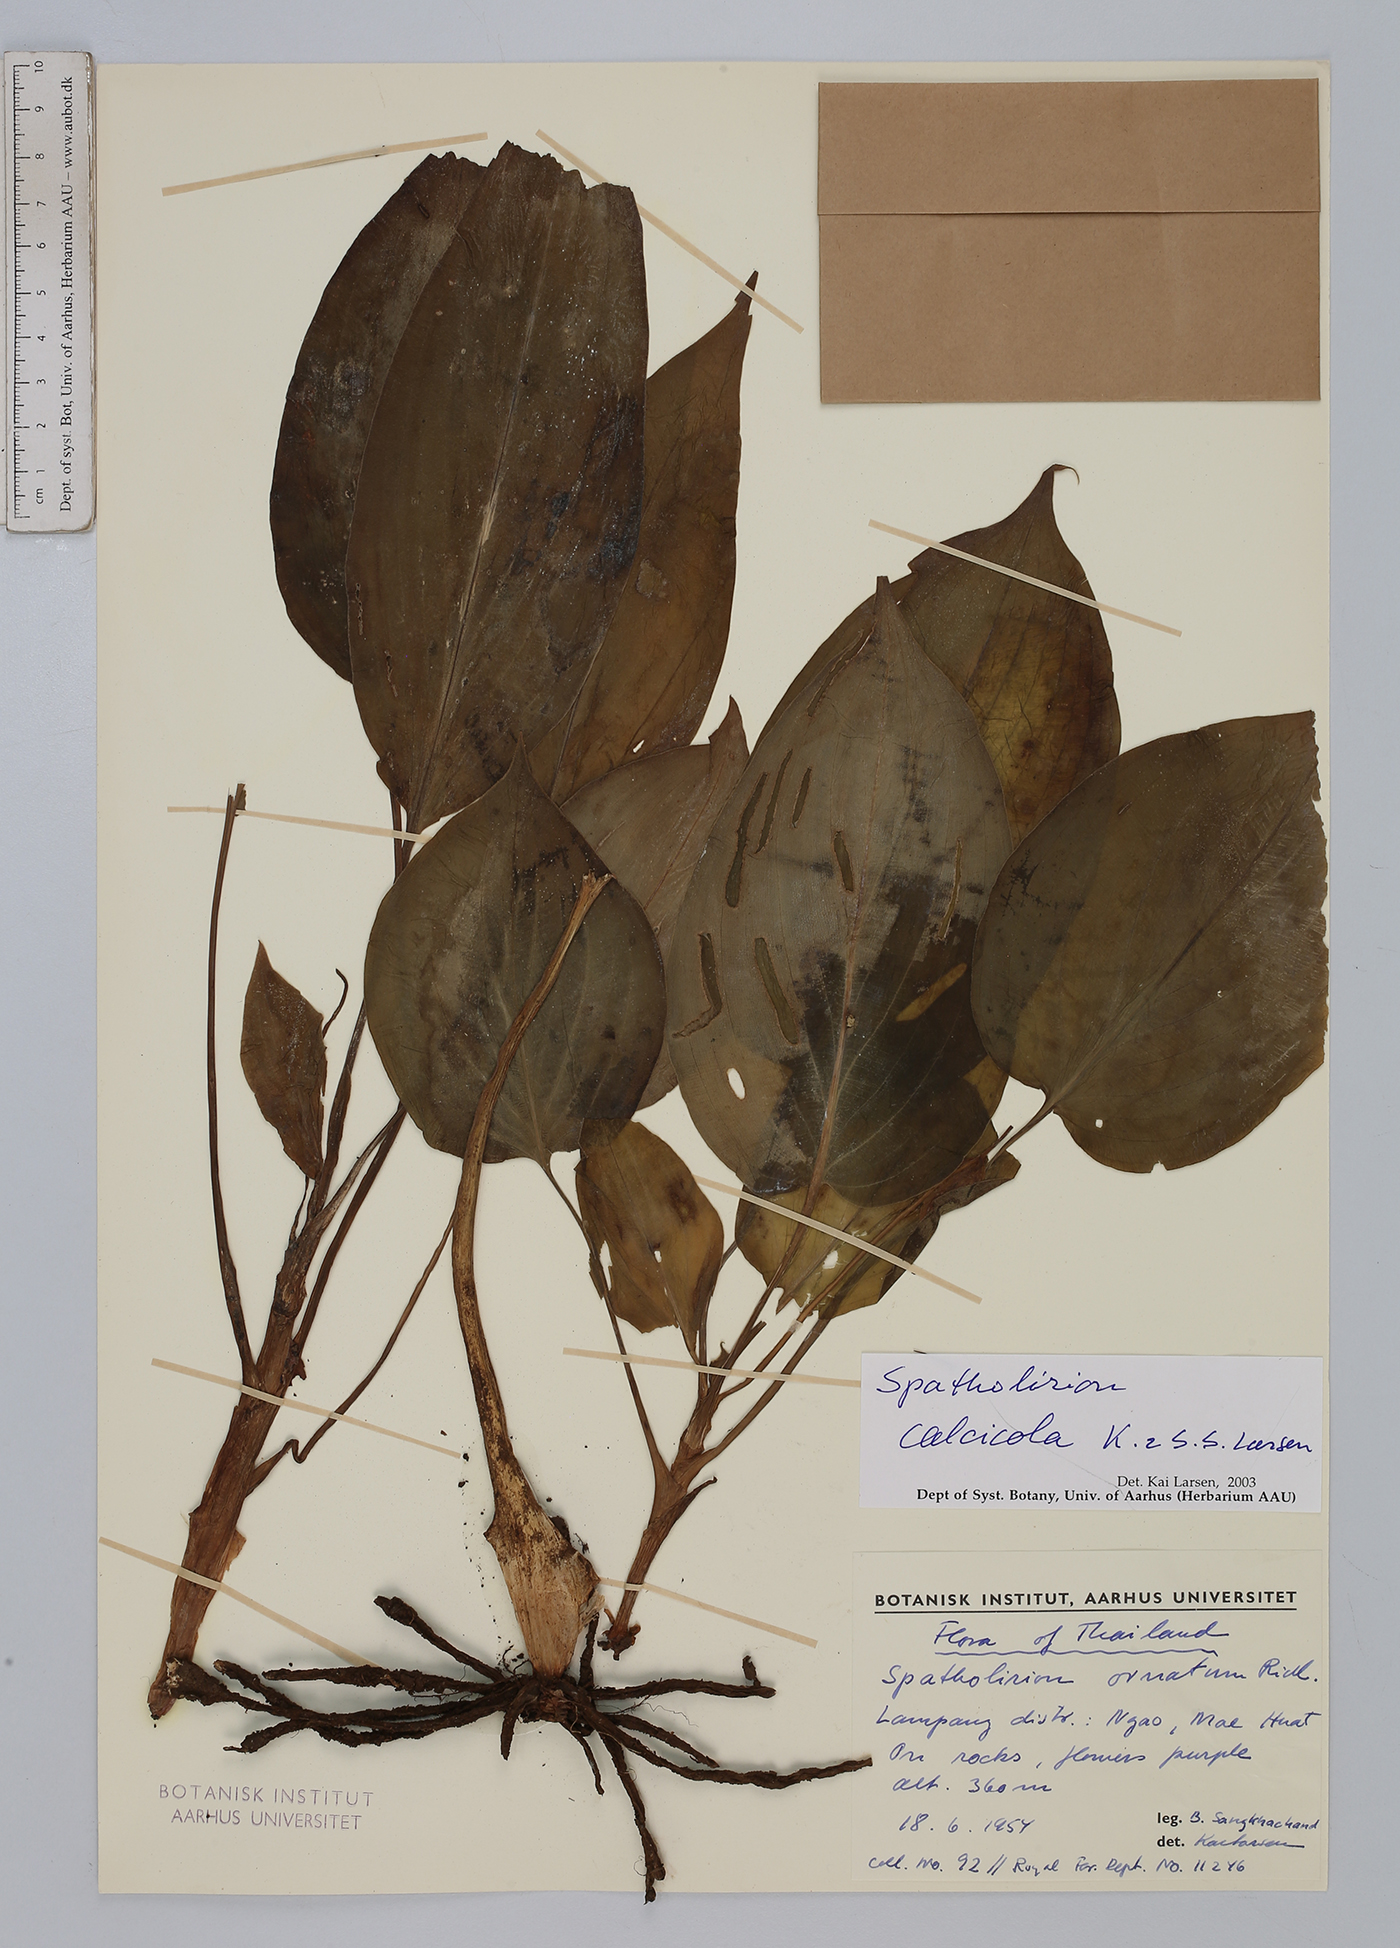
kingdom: Plantae
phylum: Tracheophyta
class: Liliopsida
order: Commelinales
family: Commelinaceae
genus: Spatholirion
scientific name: Spatholirion calcicola
